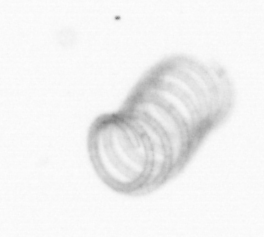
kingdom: Chromista
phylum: Ochrophyta
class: Bacillariophyceae
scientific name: Bacillariophyceae
